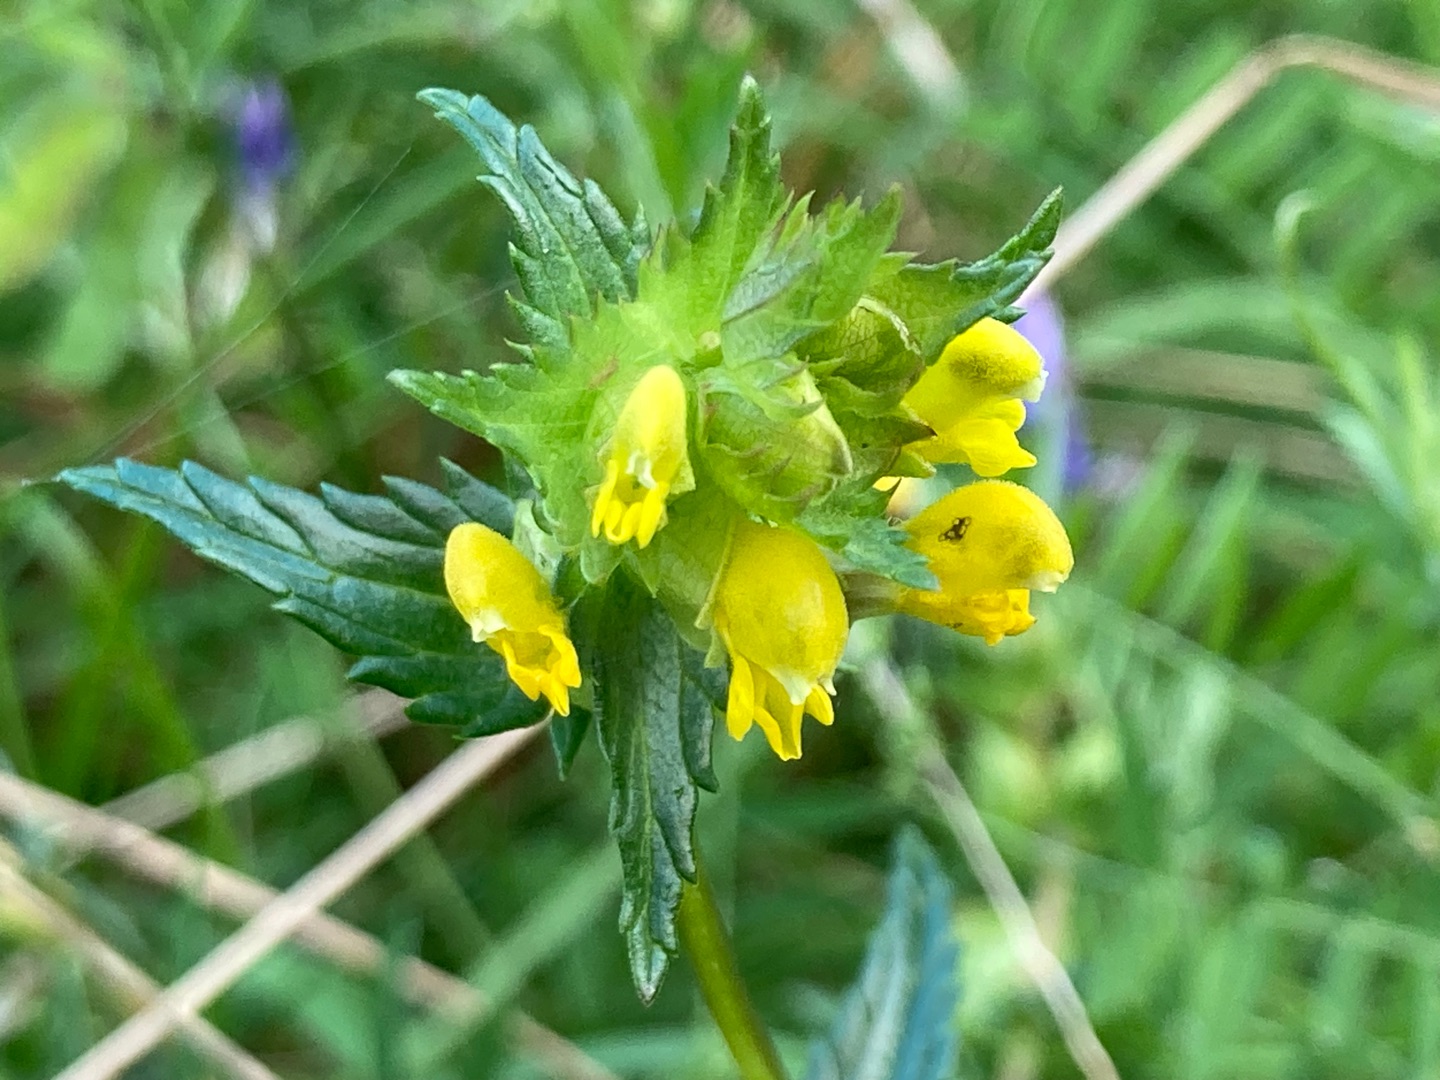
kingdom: Plantae
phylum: Tracheophyta
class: Magnoliopsida
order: Lamiales
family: Orobanchaceae
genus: Rhinanthus
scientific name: Rhinanthus
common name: Stor skjaller
